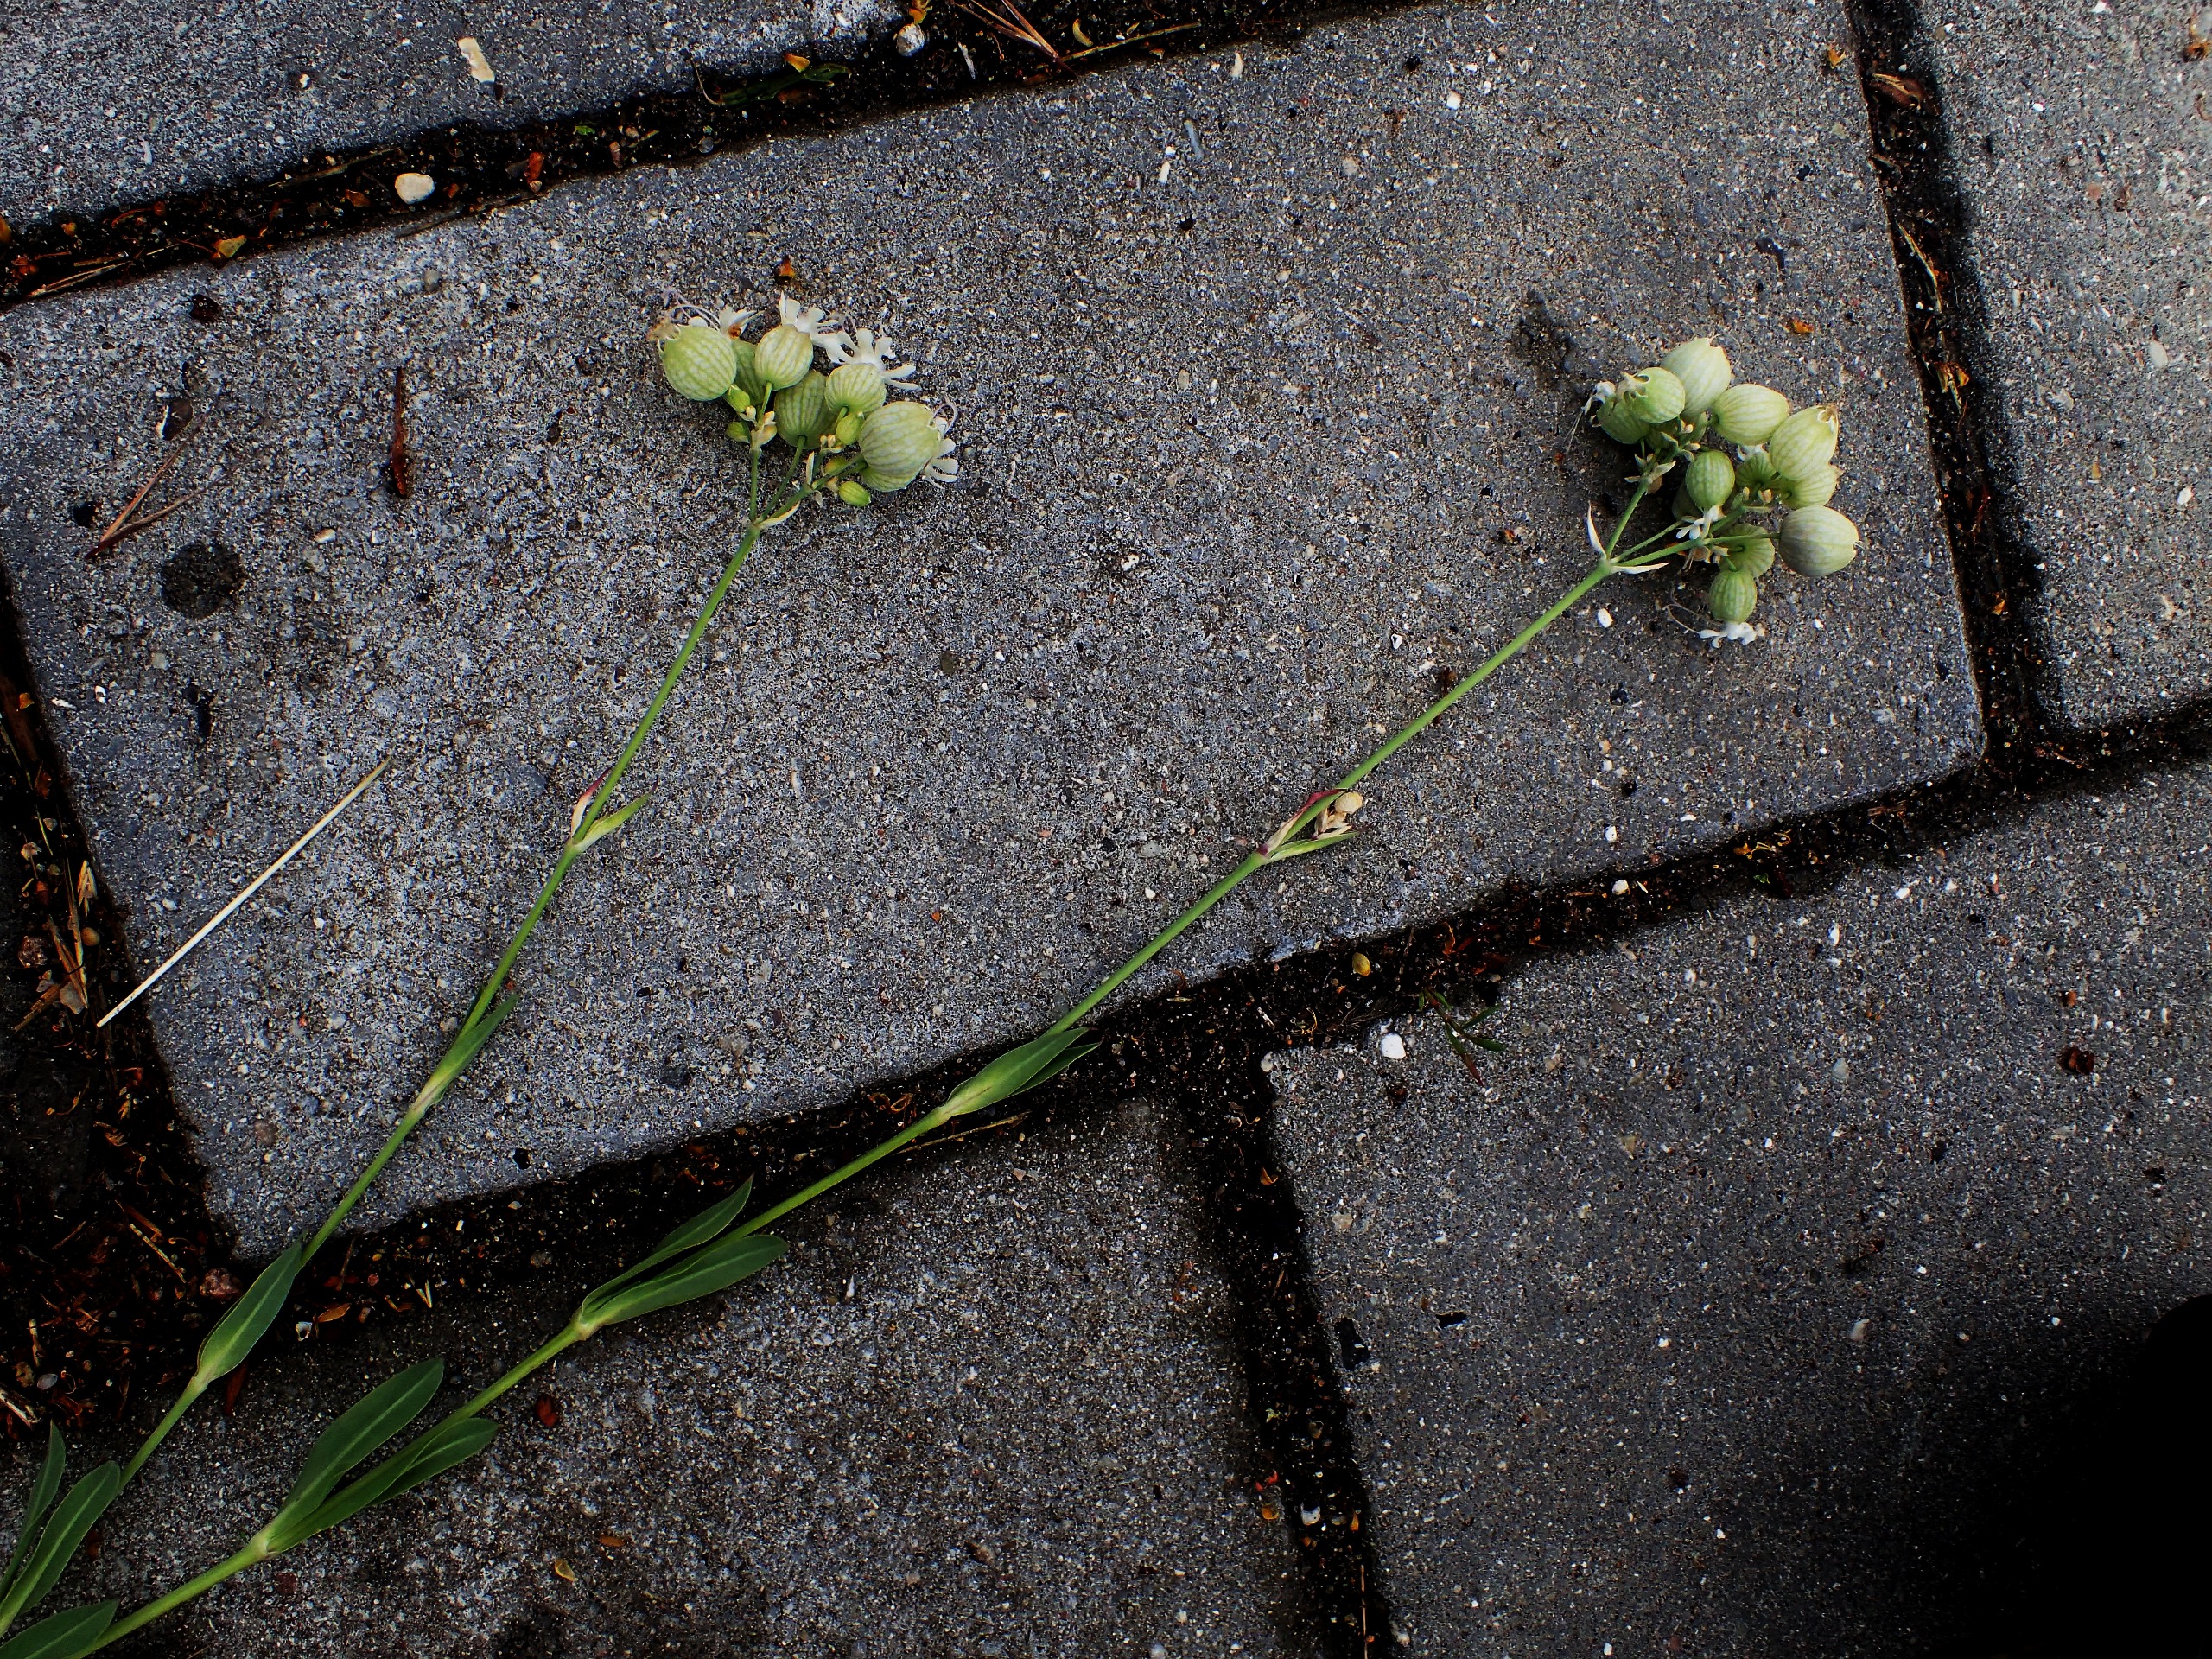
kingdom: Plantae
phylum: Tracheophyta
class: Magnoliopsida
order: Caryophyllales
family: Caryophyllaceae
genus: Silene
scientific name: Silene vulgaris
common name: Blæresmælde
